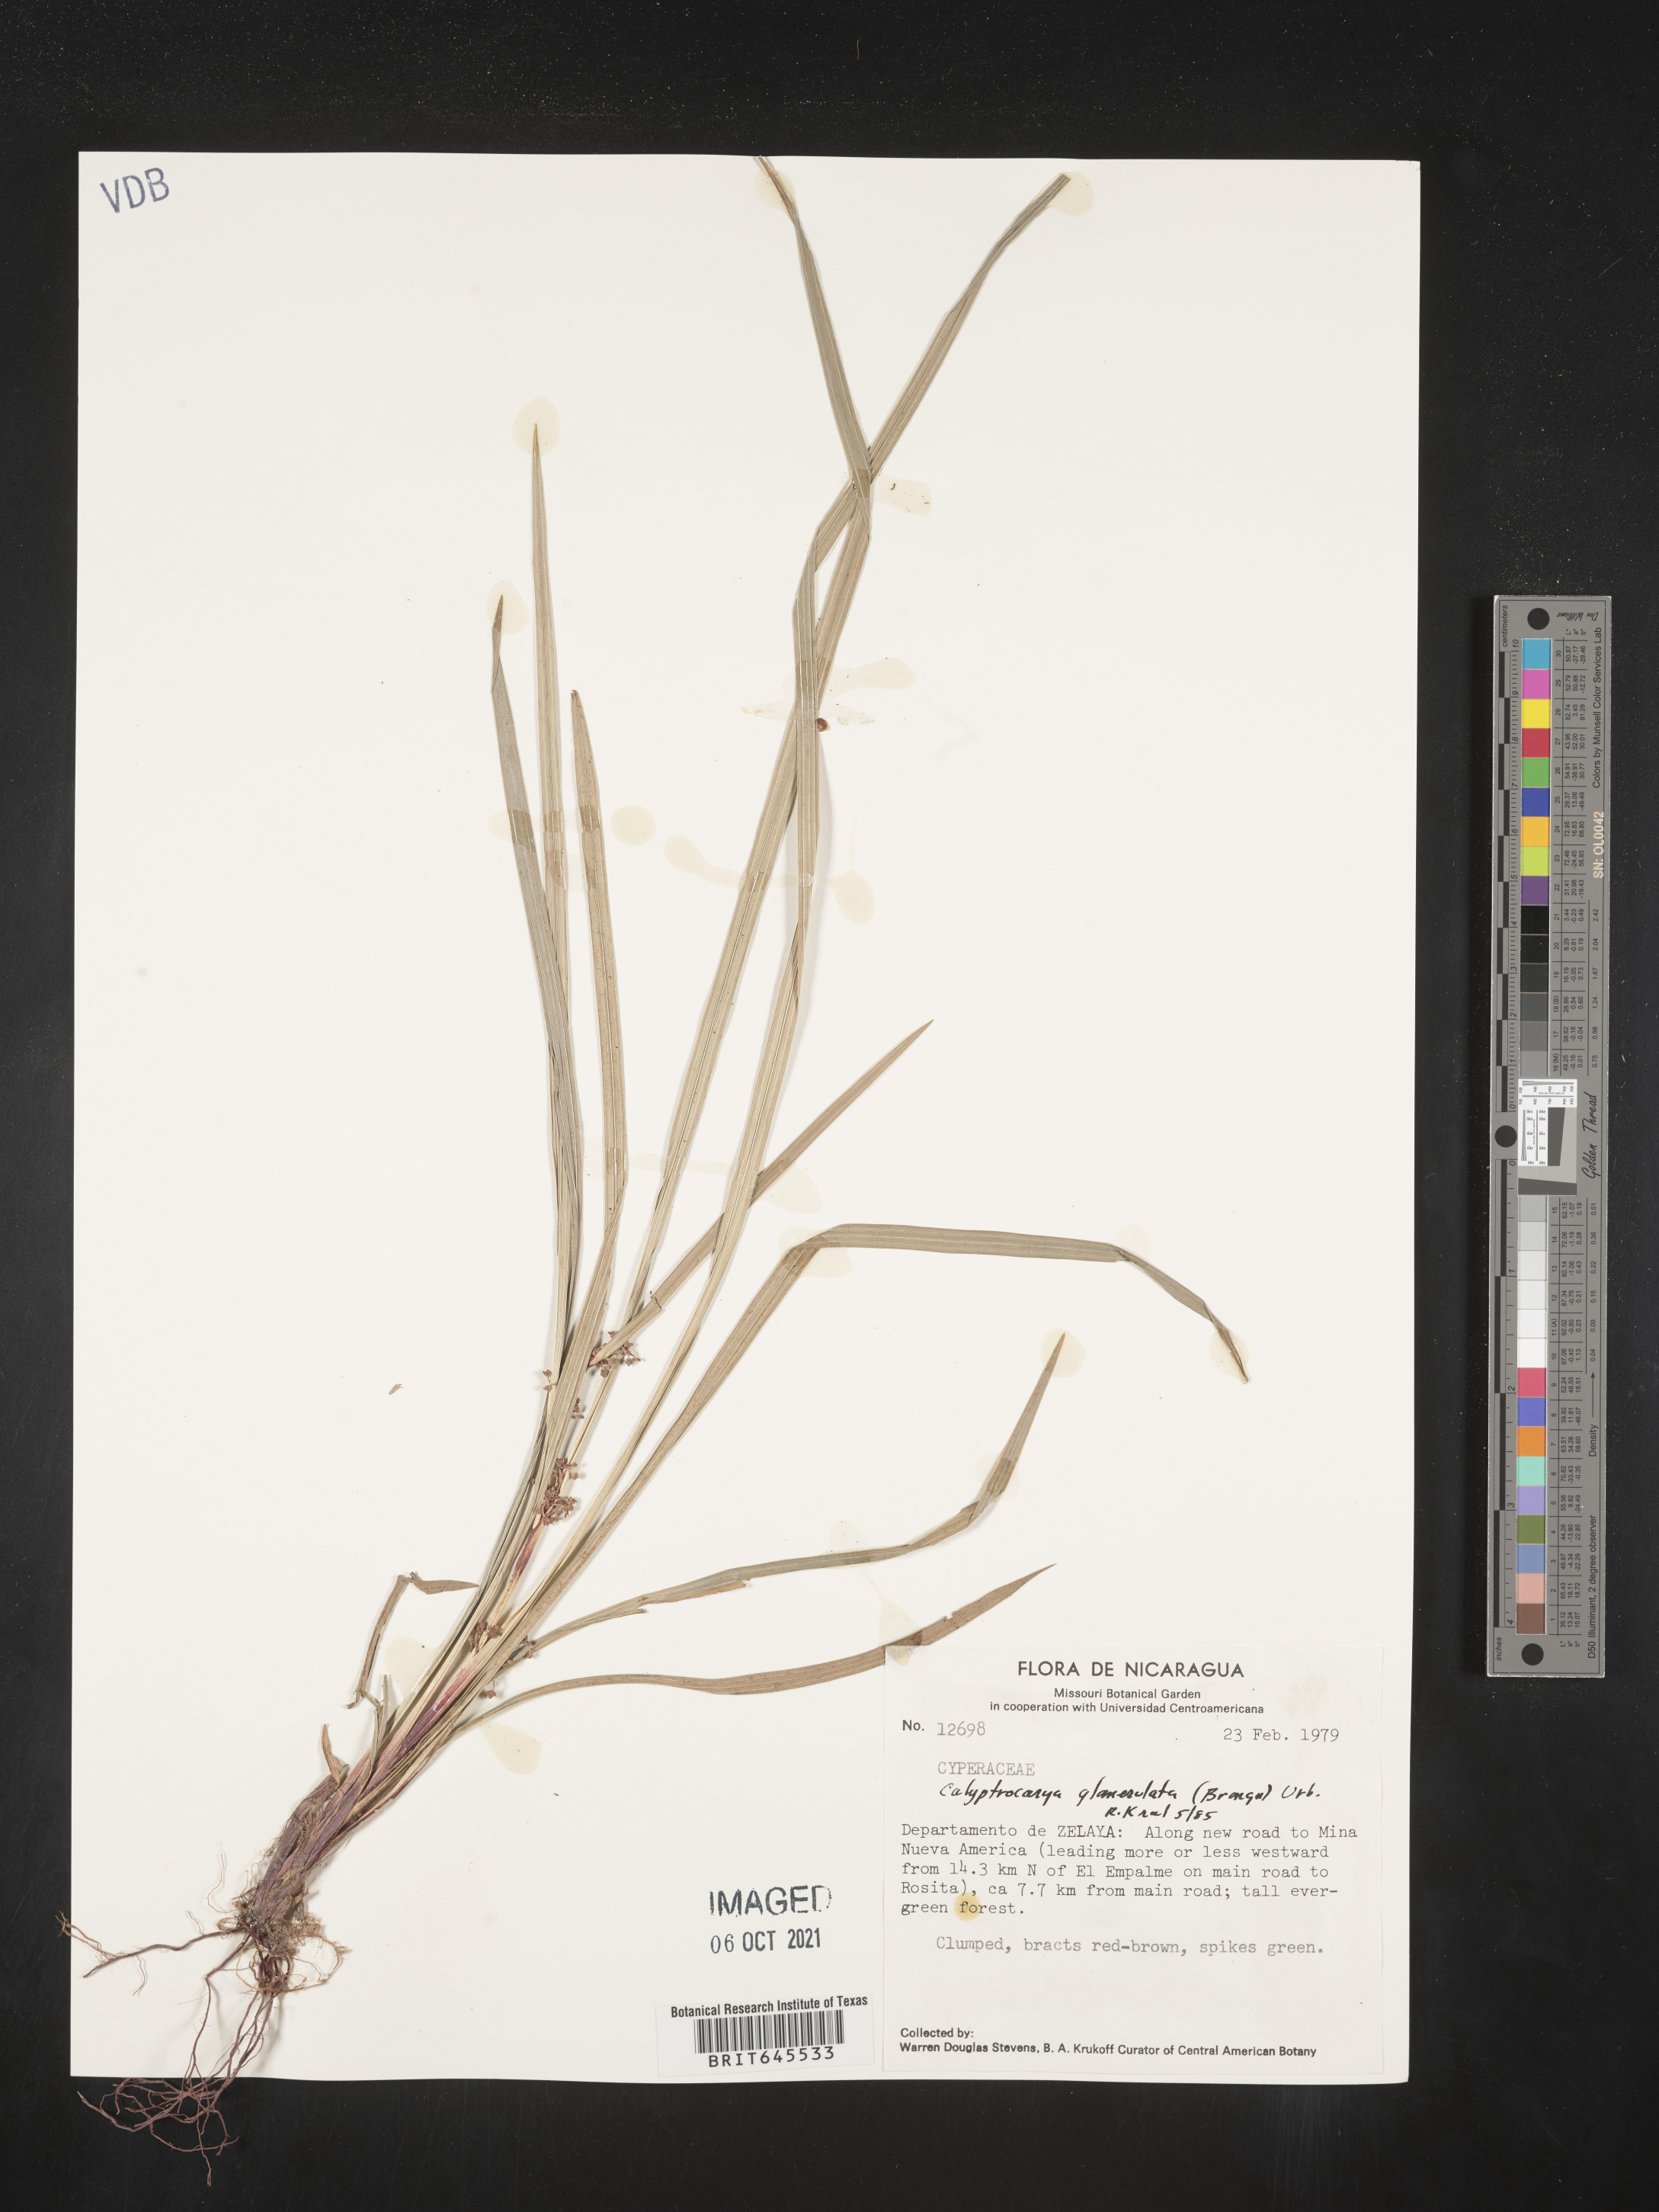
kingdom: Plantae
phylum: Tracheophyta
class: Liliopsida
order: Poales
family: Cyperaceae
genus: Calyptrocarya
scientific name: Calyptrocarya glomerulata
